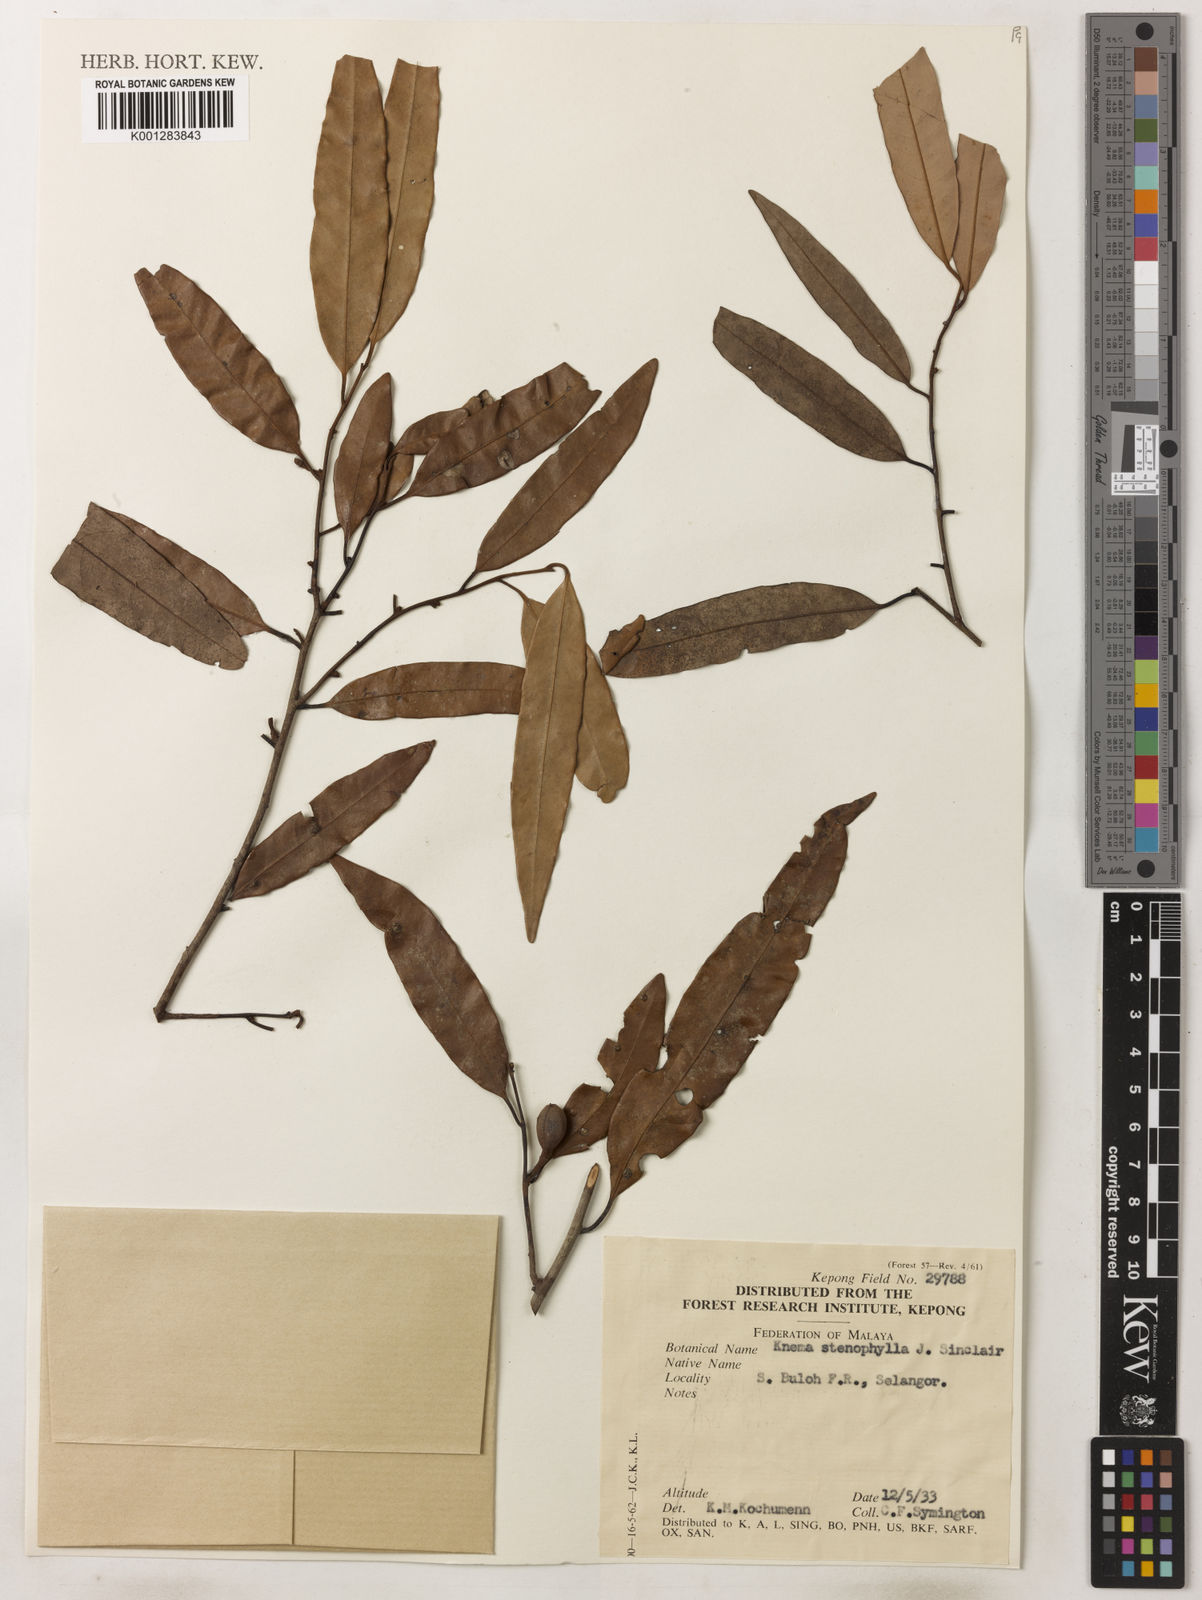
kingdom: Plantae
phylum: Tracheophyta
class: Magnoliopsida
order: Magnoliales
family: Myristicaceae
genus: Knema
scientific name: Knema stenophylla
